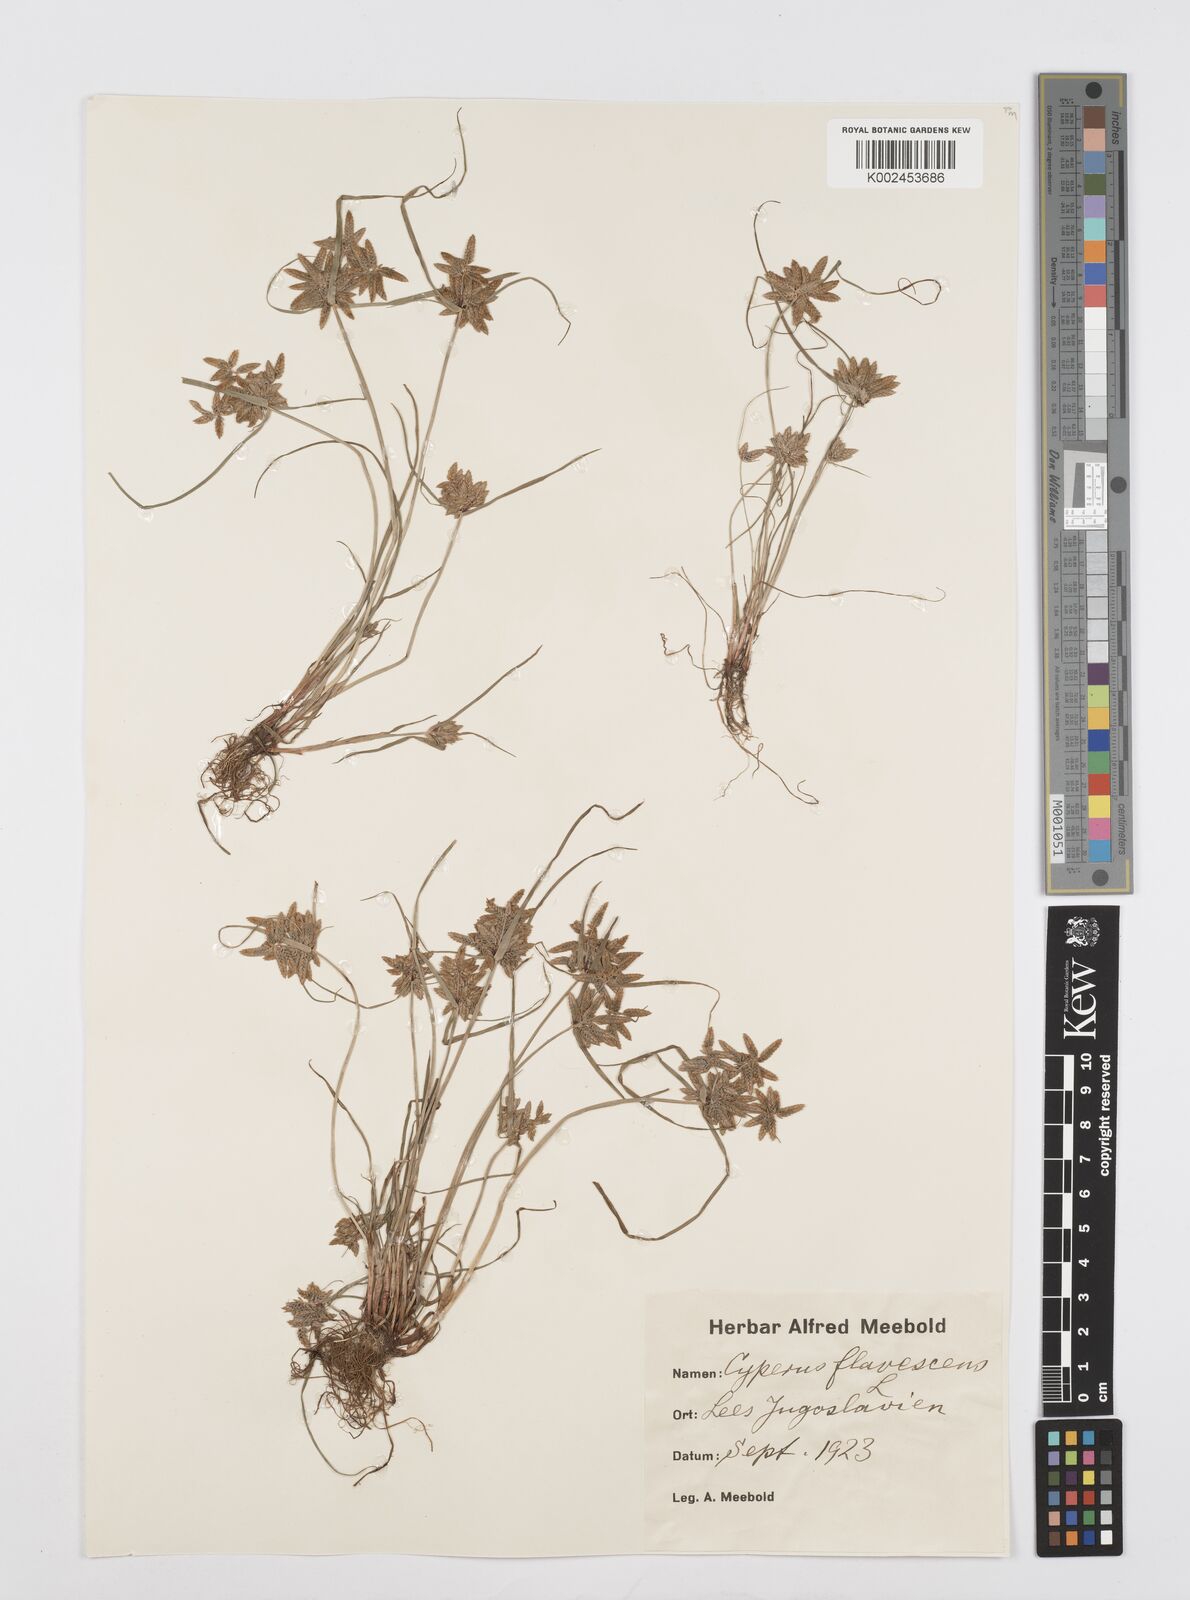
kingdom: Plantae
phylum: Tracheophyta
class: Liliopsida
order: Poales
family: Cyperaceae
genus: Cyperus
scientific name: Cyperus flavescens
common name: Yellow galingale
